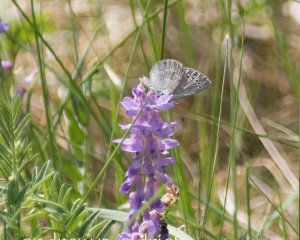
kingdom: Animalia
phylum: Arthropoda
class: Insecta
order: Lepidoptera
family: Lycaenidae
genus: Glaucopsyche
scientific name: Glaucopsyche lygdamus
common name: Silvery Blue
